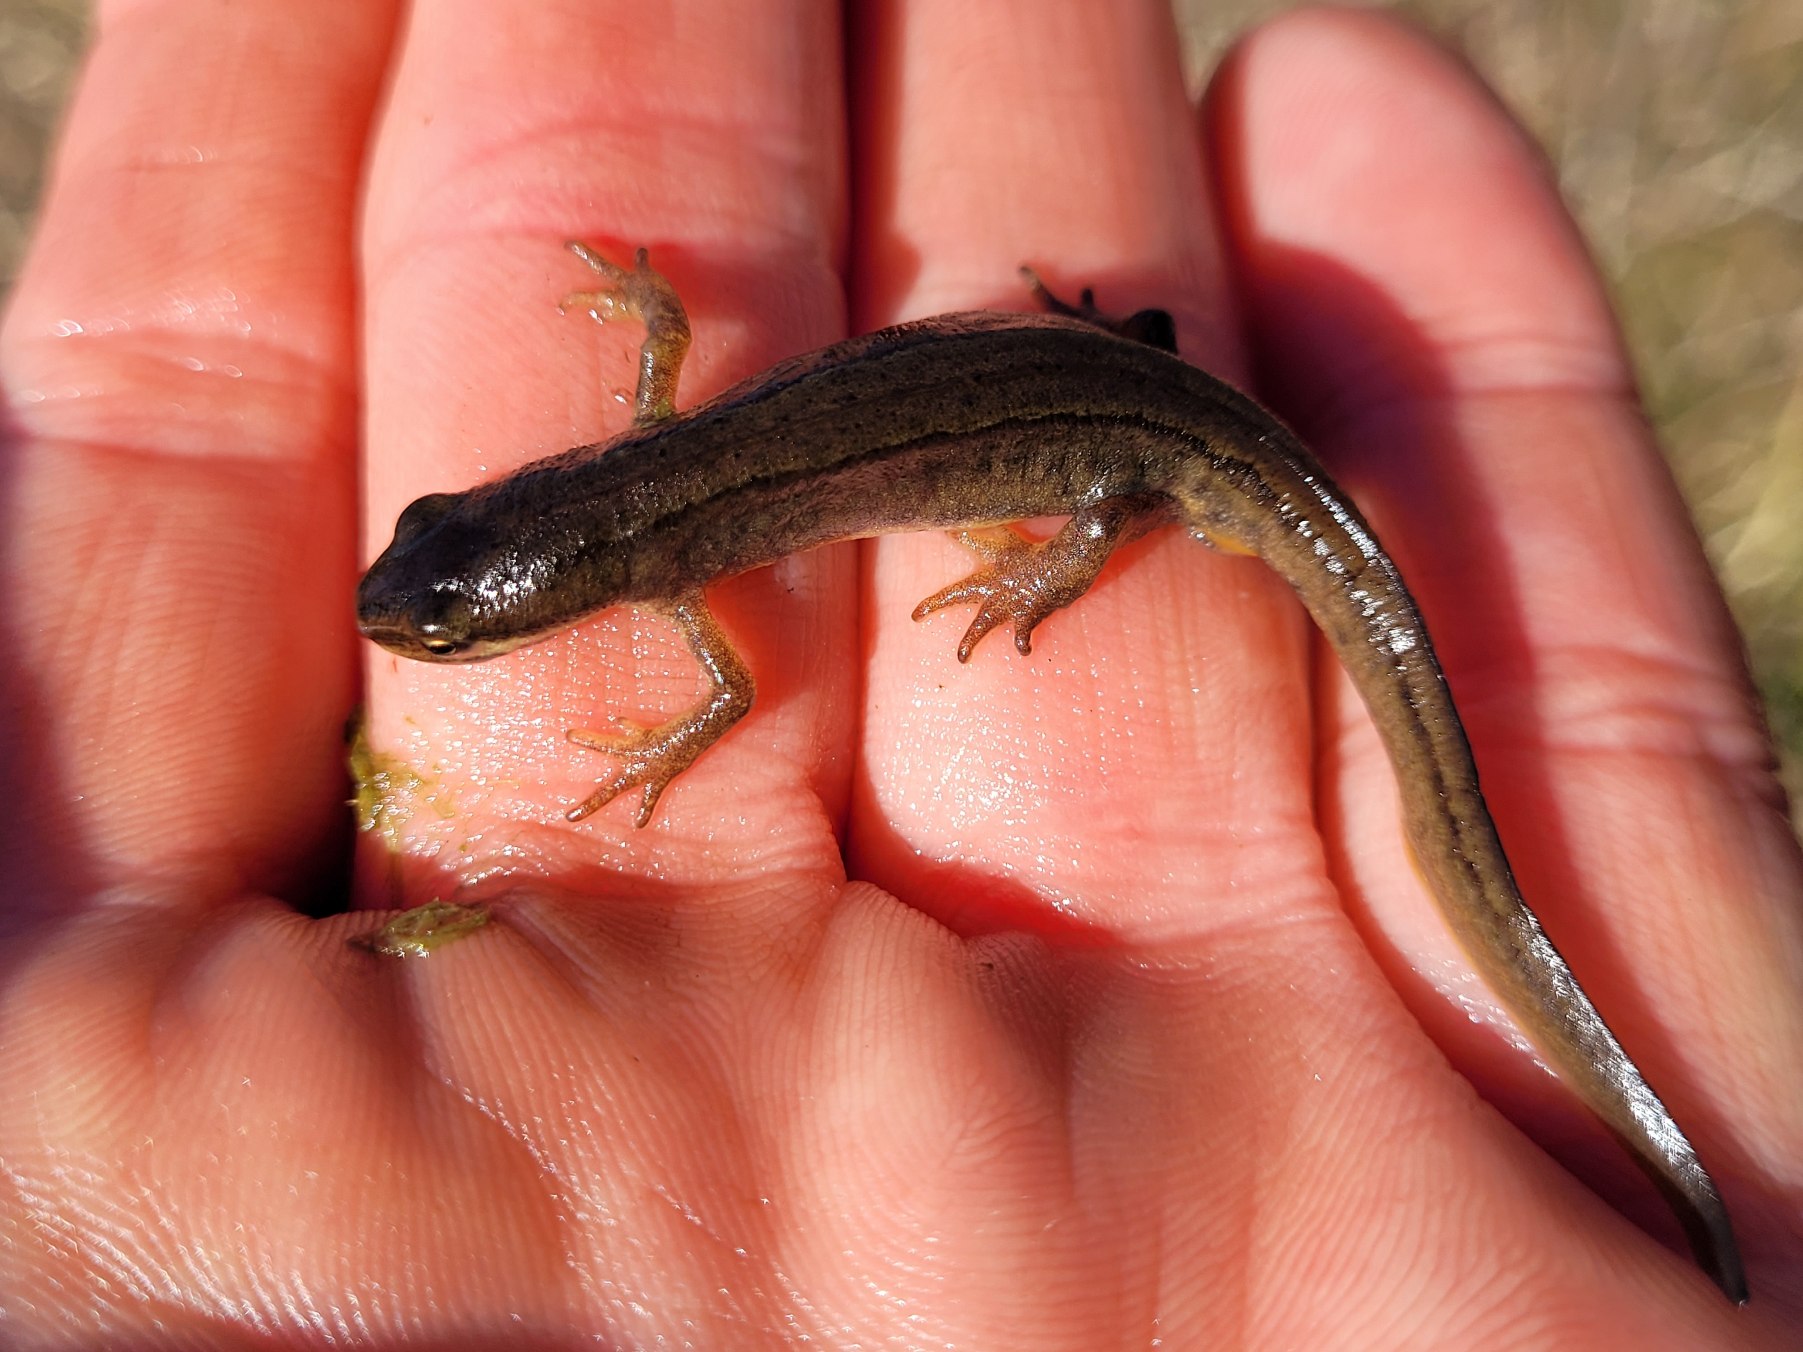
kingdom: Animalia
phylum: Chordata
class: Amphibia
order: Caudata
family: Salamandridae
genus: Lissotriton
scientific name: Lissotriton vulgaris
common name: Lille vandsalamander
